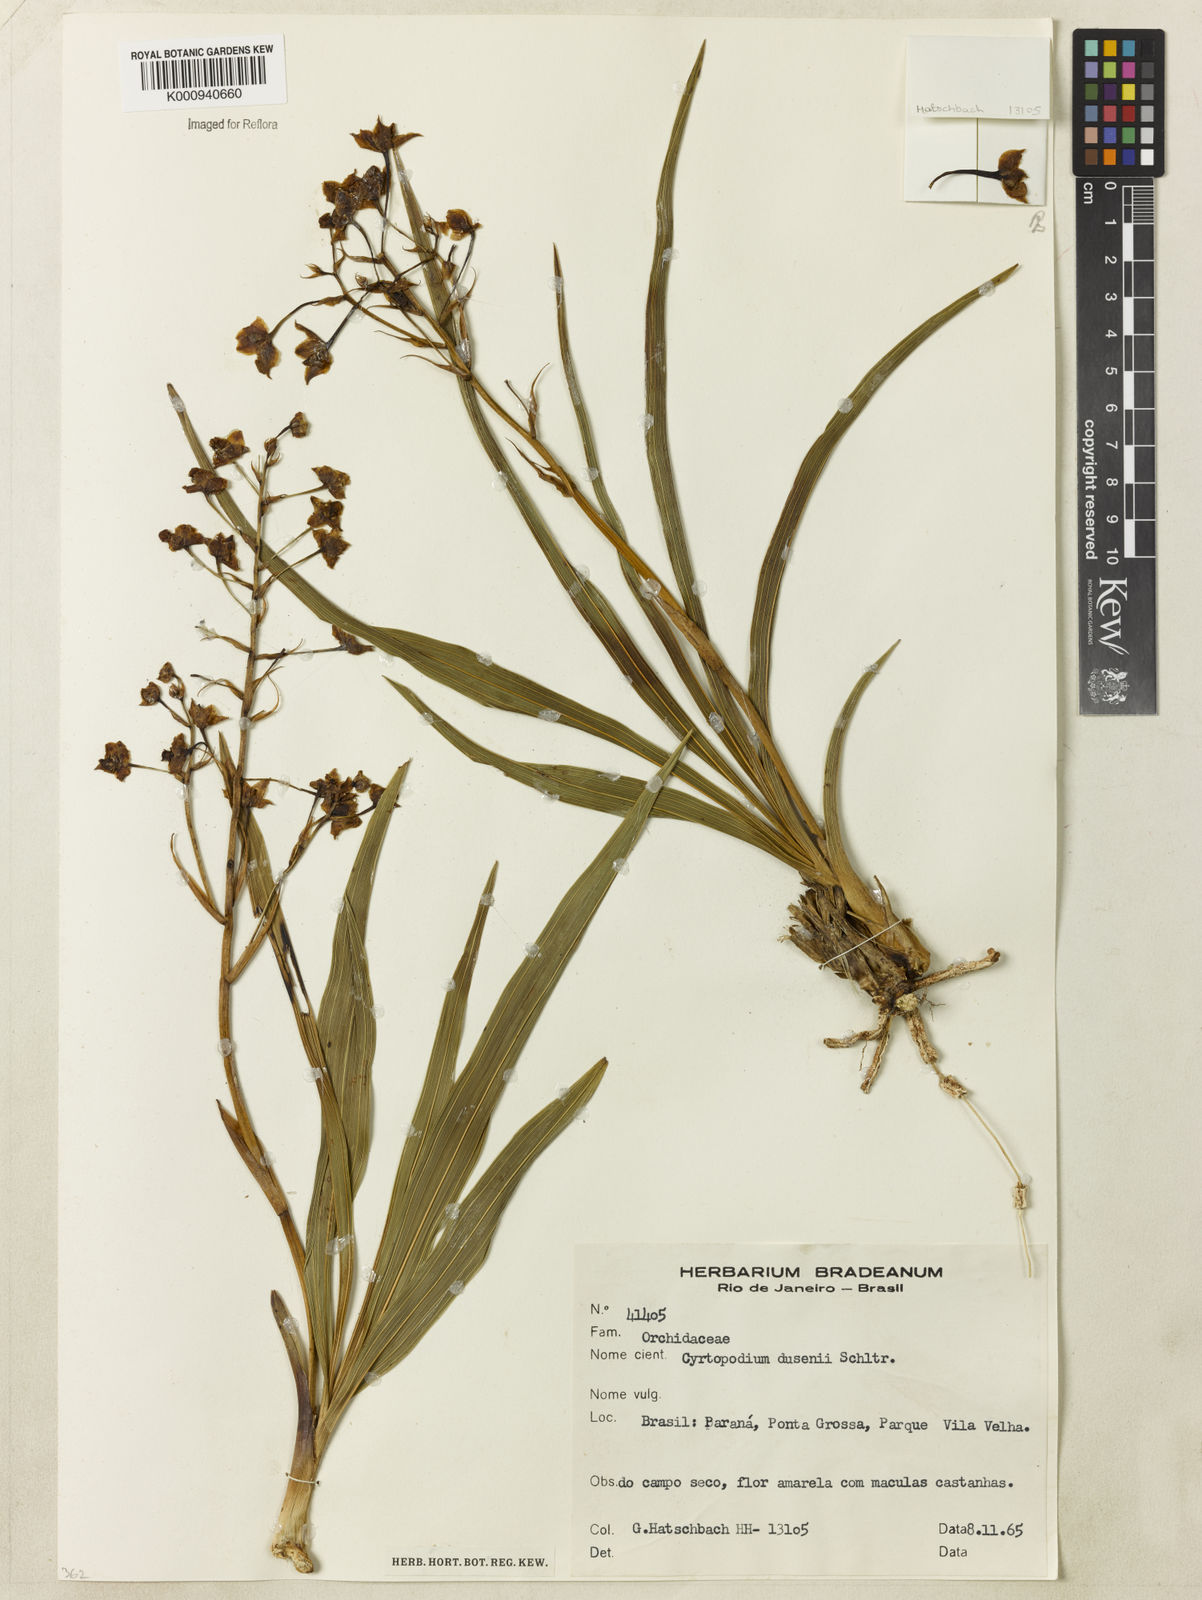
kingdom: Plantae
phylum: Tracheophyta
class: Liliopsida
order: Asparagales
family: Orchidaceae
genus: Cyrtopodium
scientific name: Cyrtopodium dusenii
